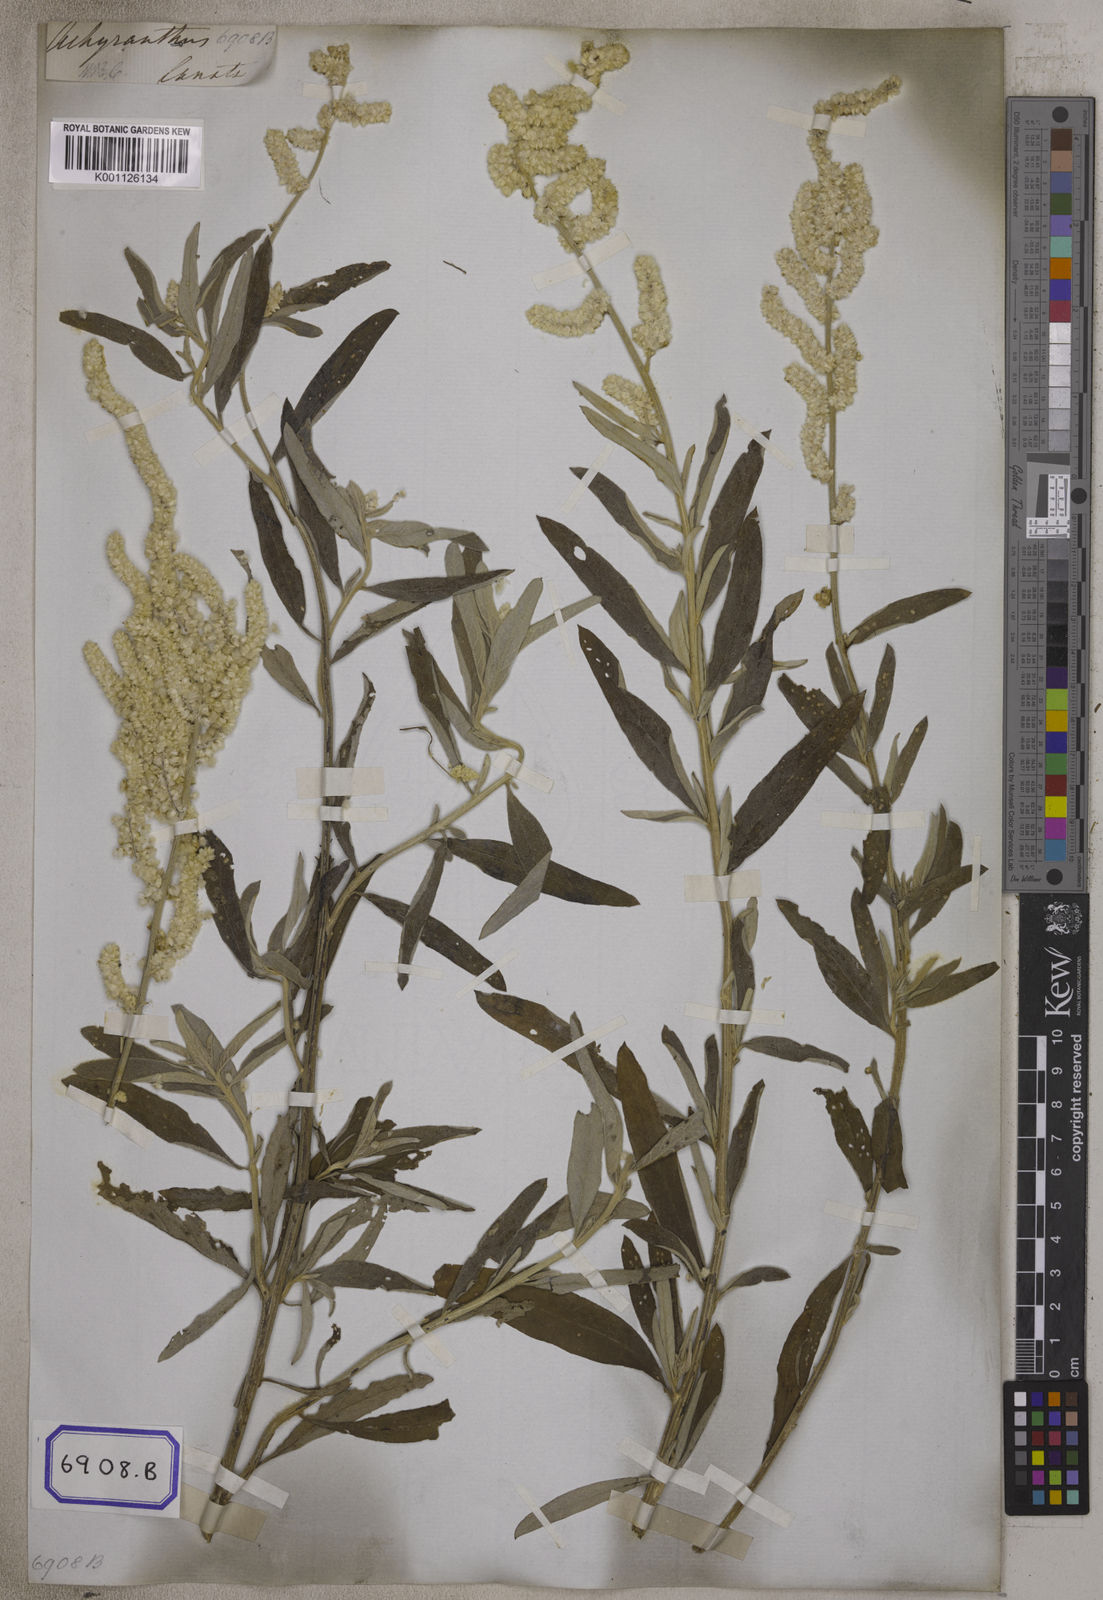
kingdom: Plantae
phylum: Tracheophyta
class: Magnoliopsida
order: Caryophyllales
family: Amaranthaceae
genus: Aerva
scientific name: Aerva
